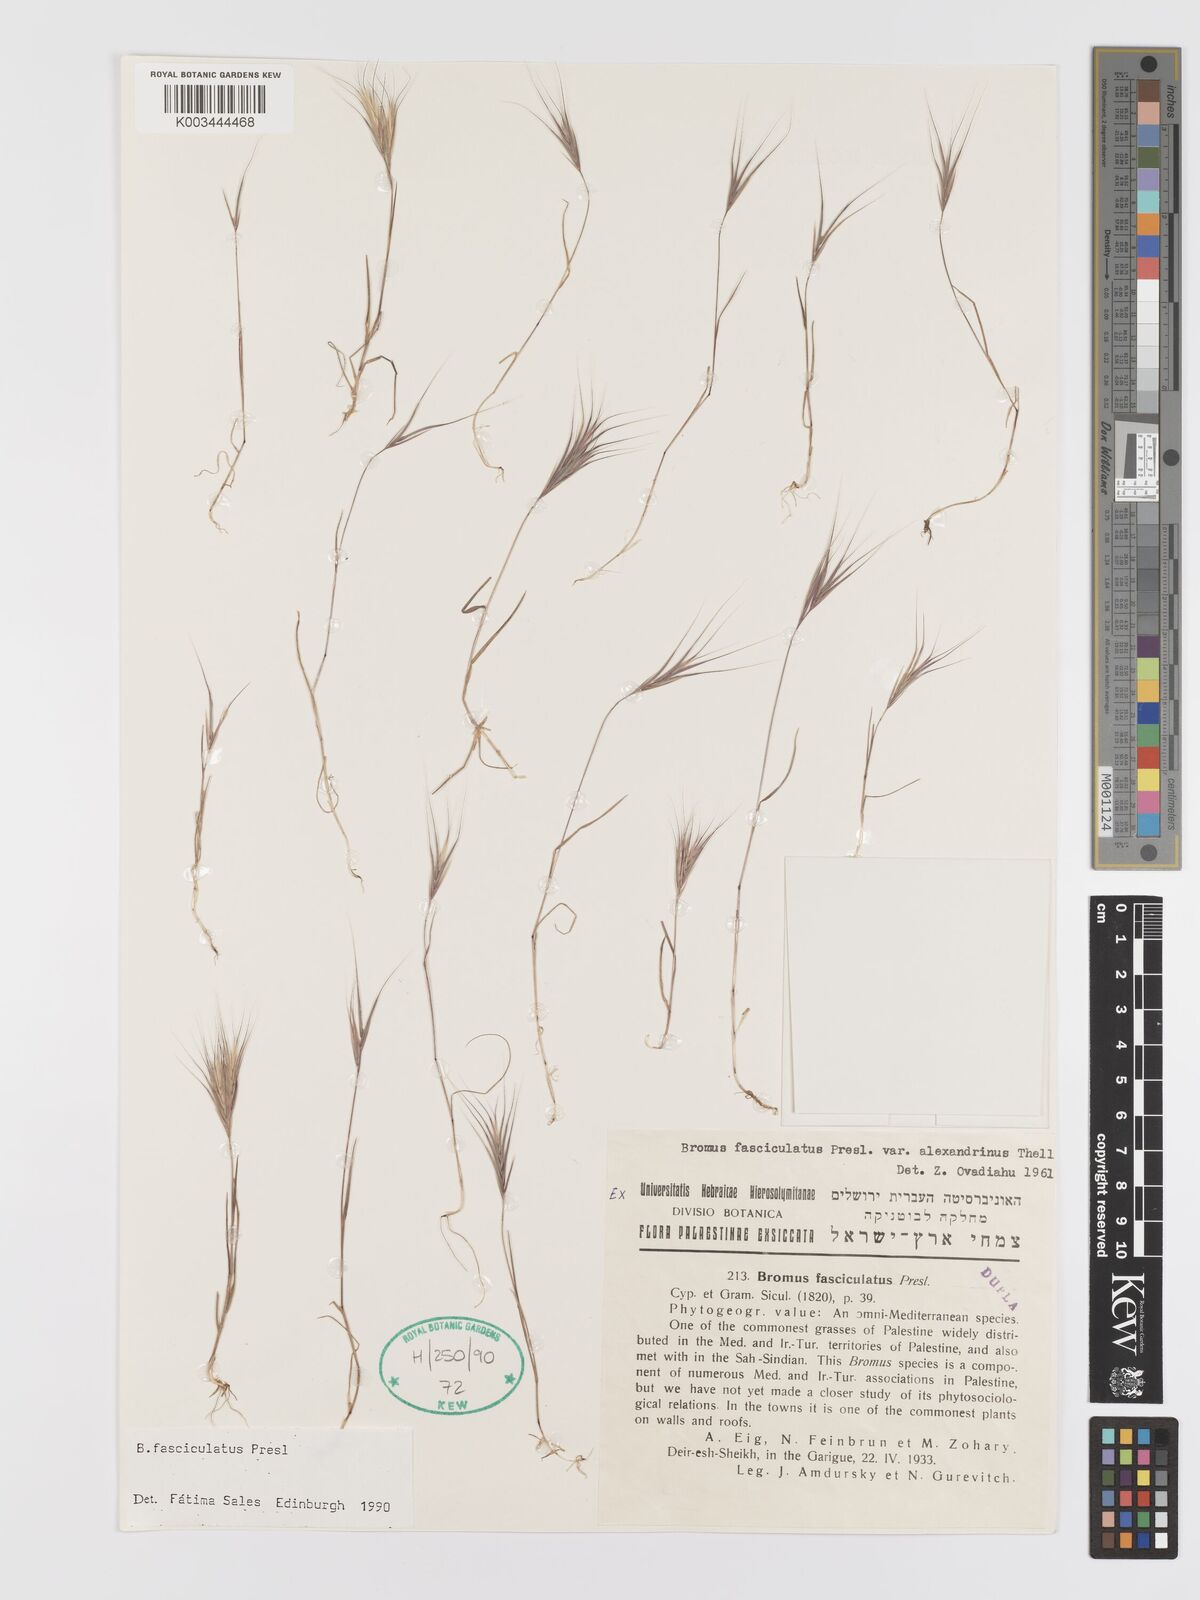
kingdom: Plantae
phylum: Tracheophyta
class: Liliopsida
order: Poales
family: Poaceae
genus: Bromus
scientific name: Bromus fasciculatus
